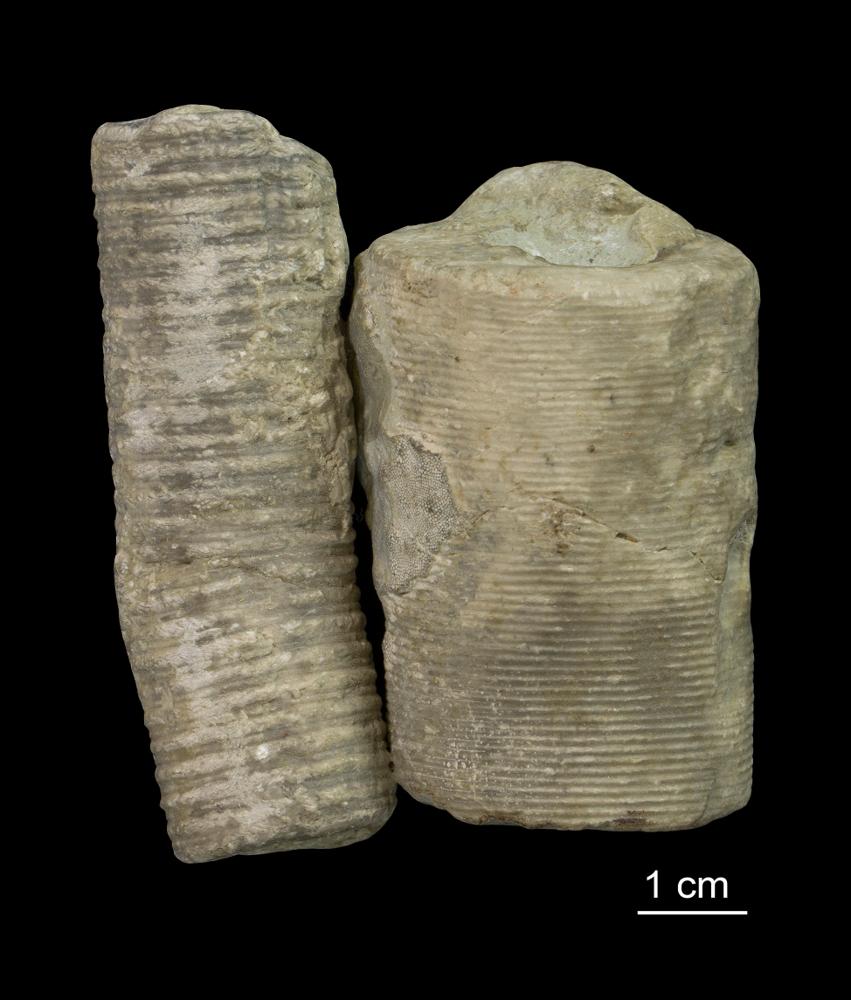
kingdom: Animalia
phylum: Echinodermata
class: Crinoidea
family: Crotalocrinitidae
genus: Crotalocrinus
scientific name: Crotalocrinus
